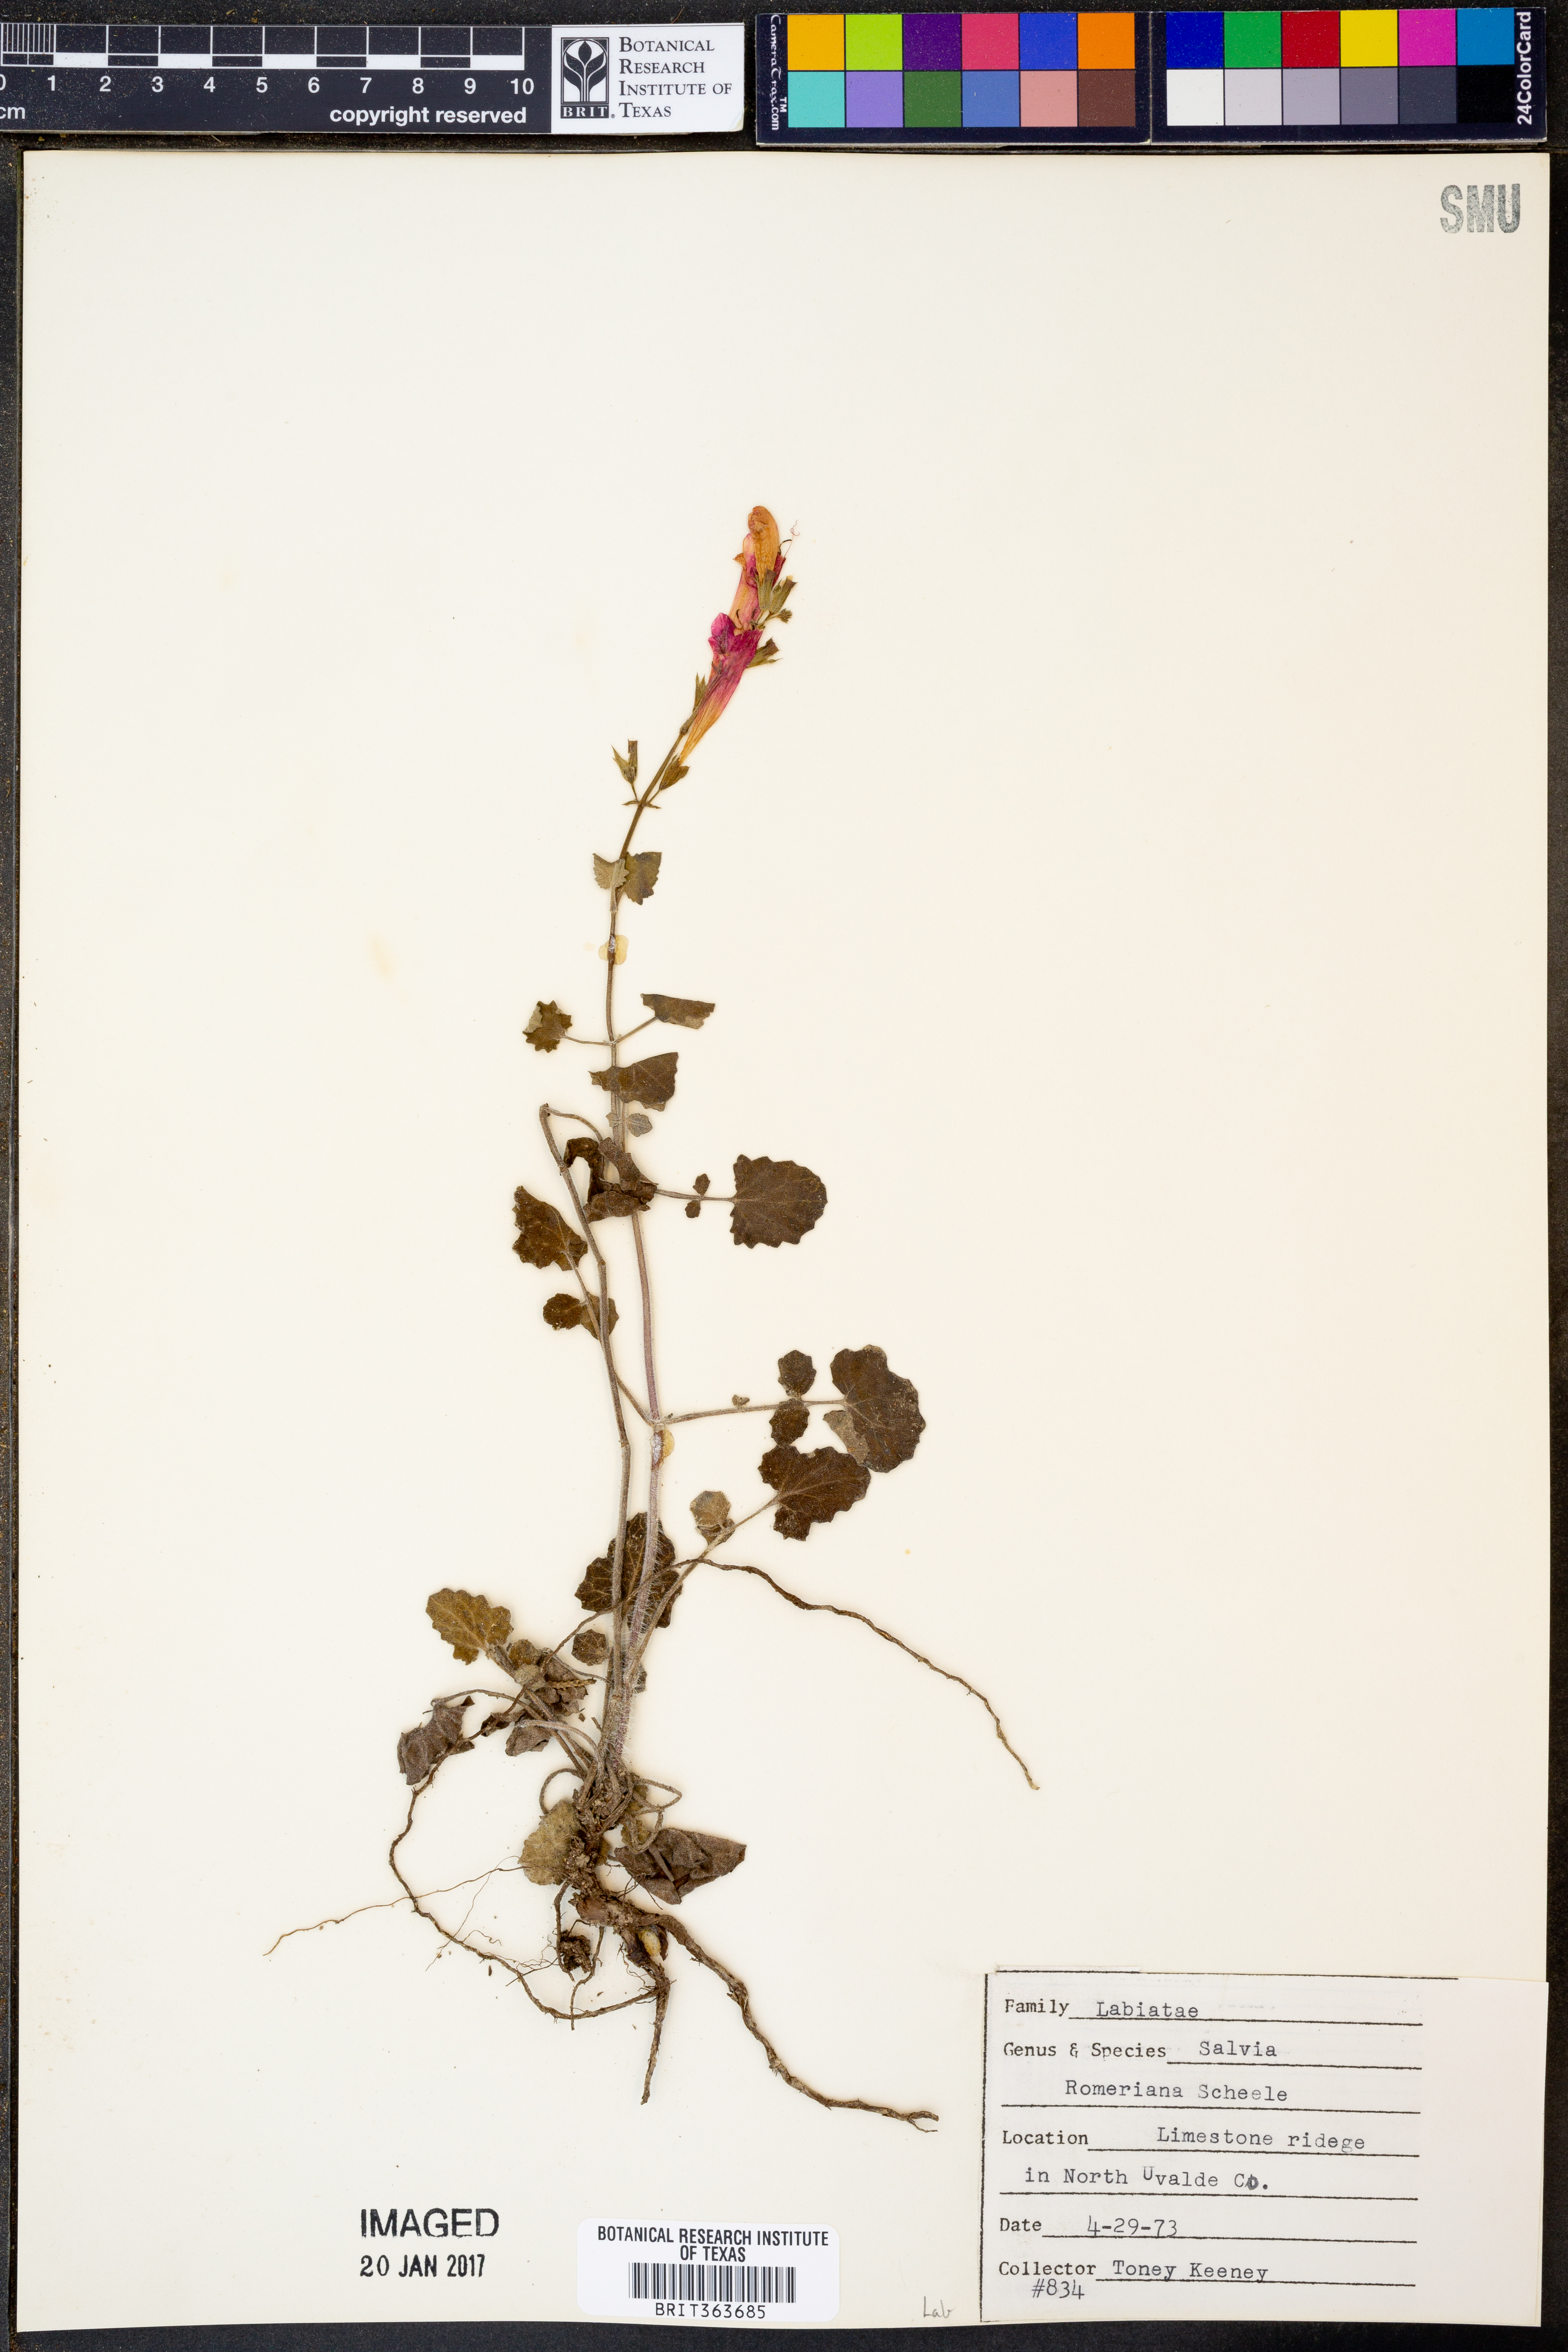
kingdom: Plantae
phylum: Tracheophyta
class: Magnoliopsida
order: Lamiales
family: Lamiaceae
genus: Salvia
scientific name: Salvia roemeriana
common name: Cedar sage
